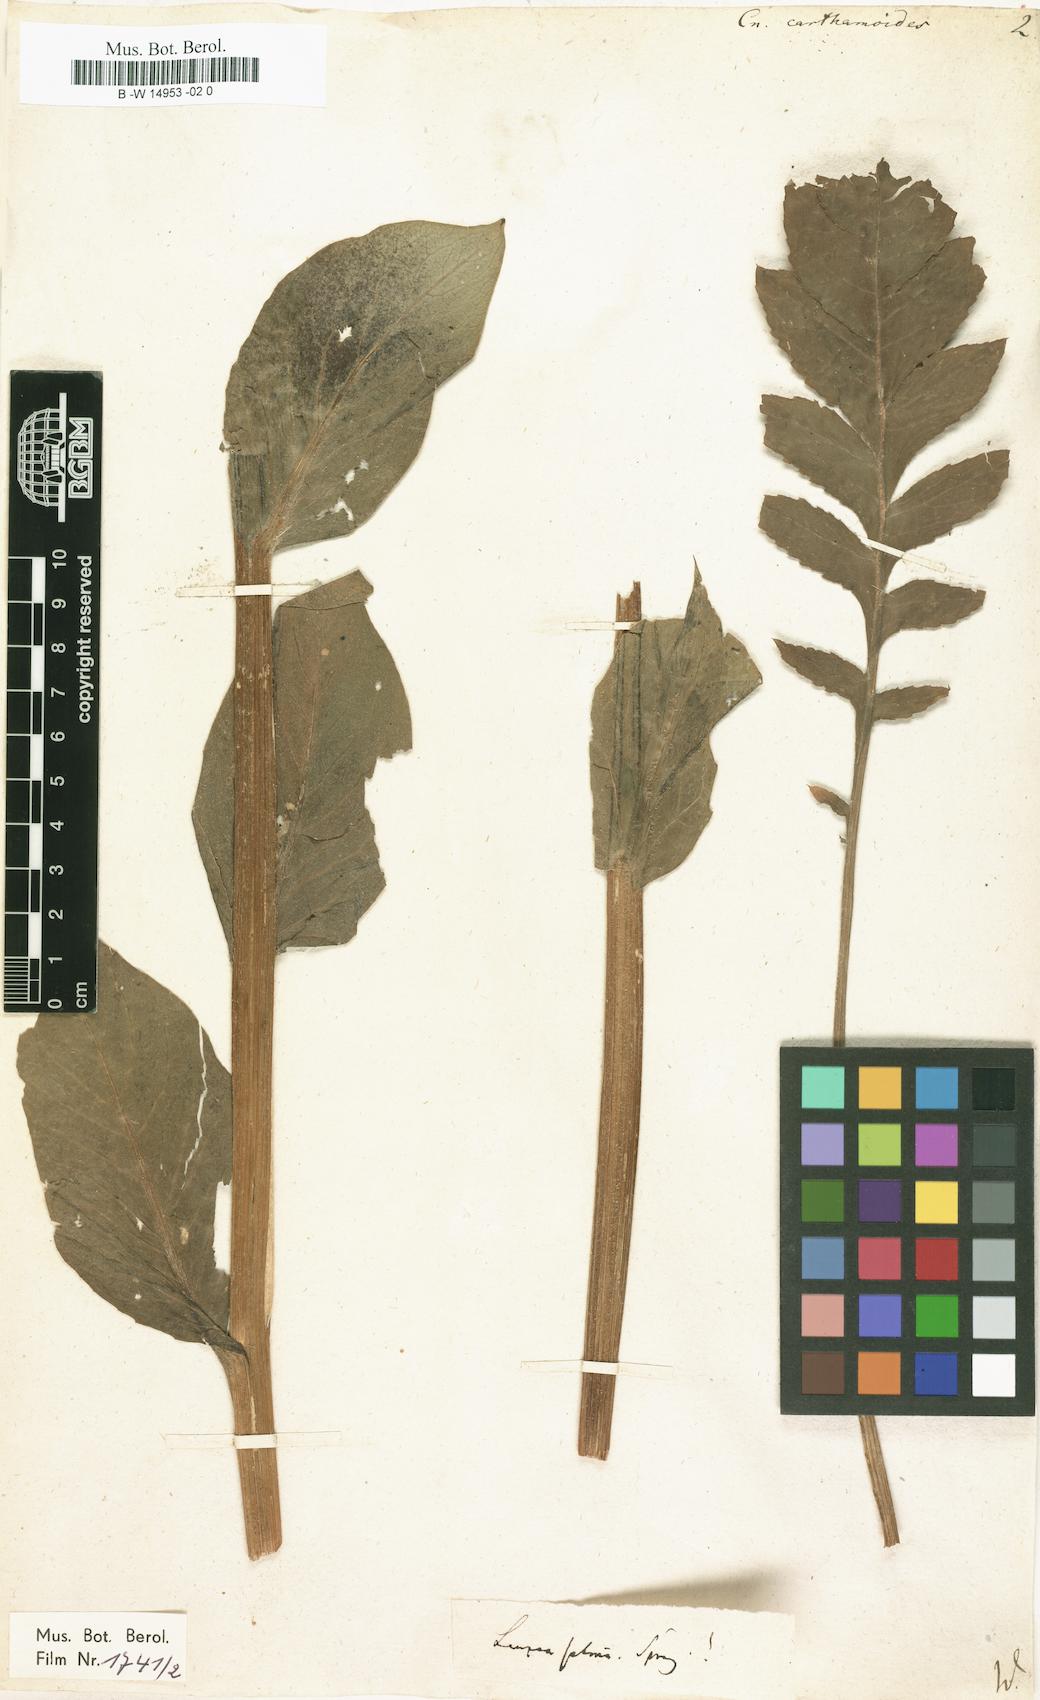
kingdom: Plantae
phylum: Tracheophyta
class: Magnoliopsida
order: Asterales
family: Asteraceae
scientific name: Asteraceae
